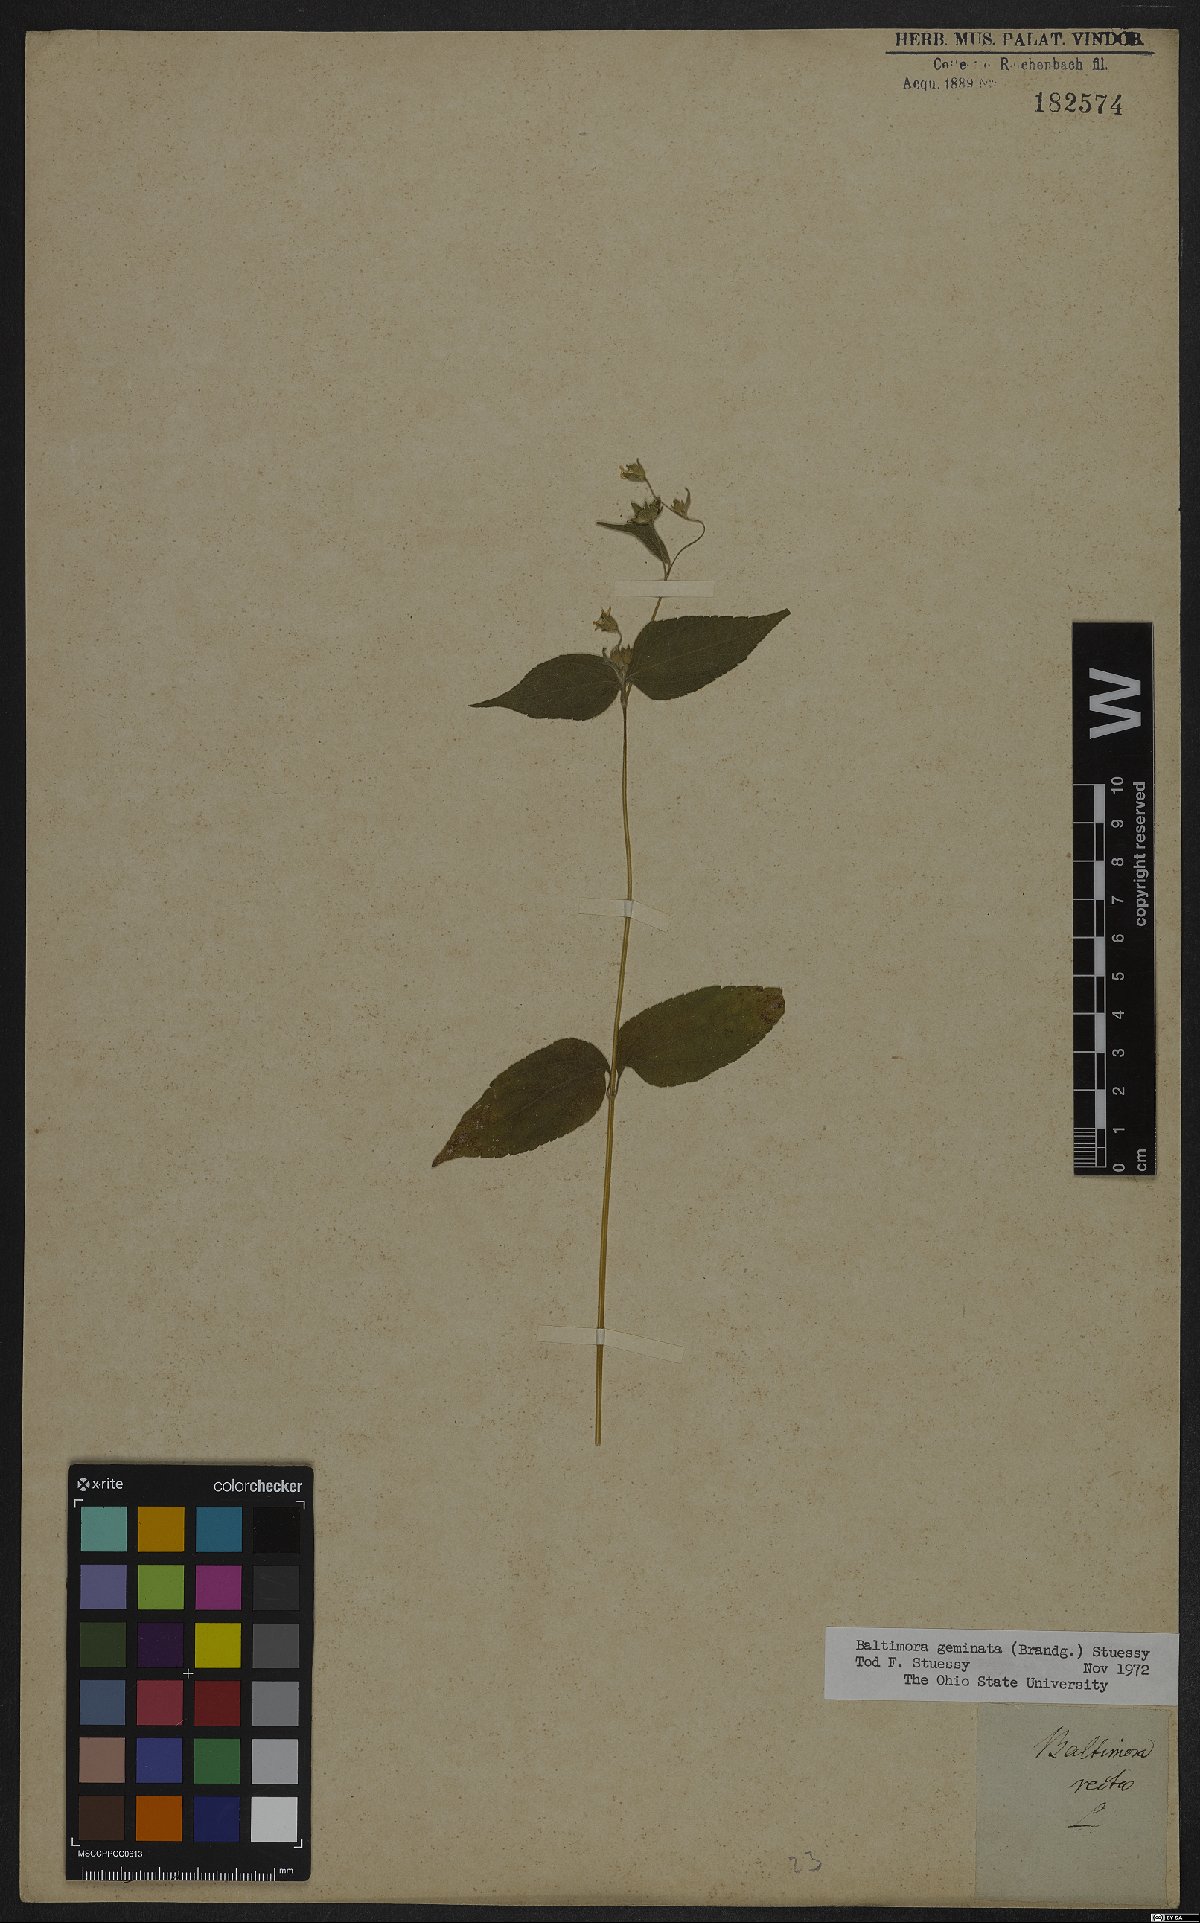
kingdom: Plantae
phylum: Tracheophyta
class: Magnoliopsida
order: Asterales
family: Asteraceae
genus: Baltimora
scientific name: Baltimora geminata
